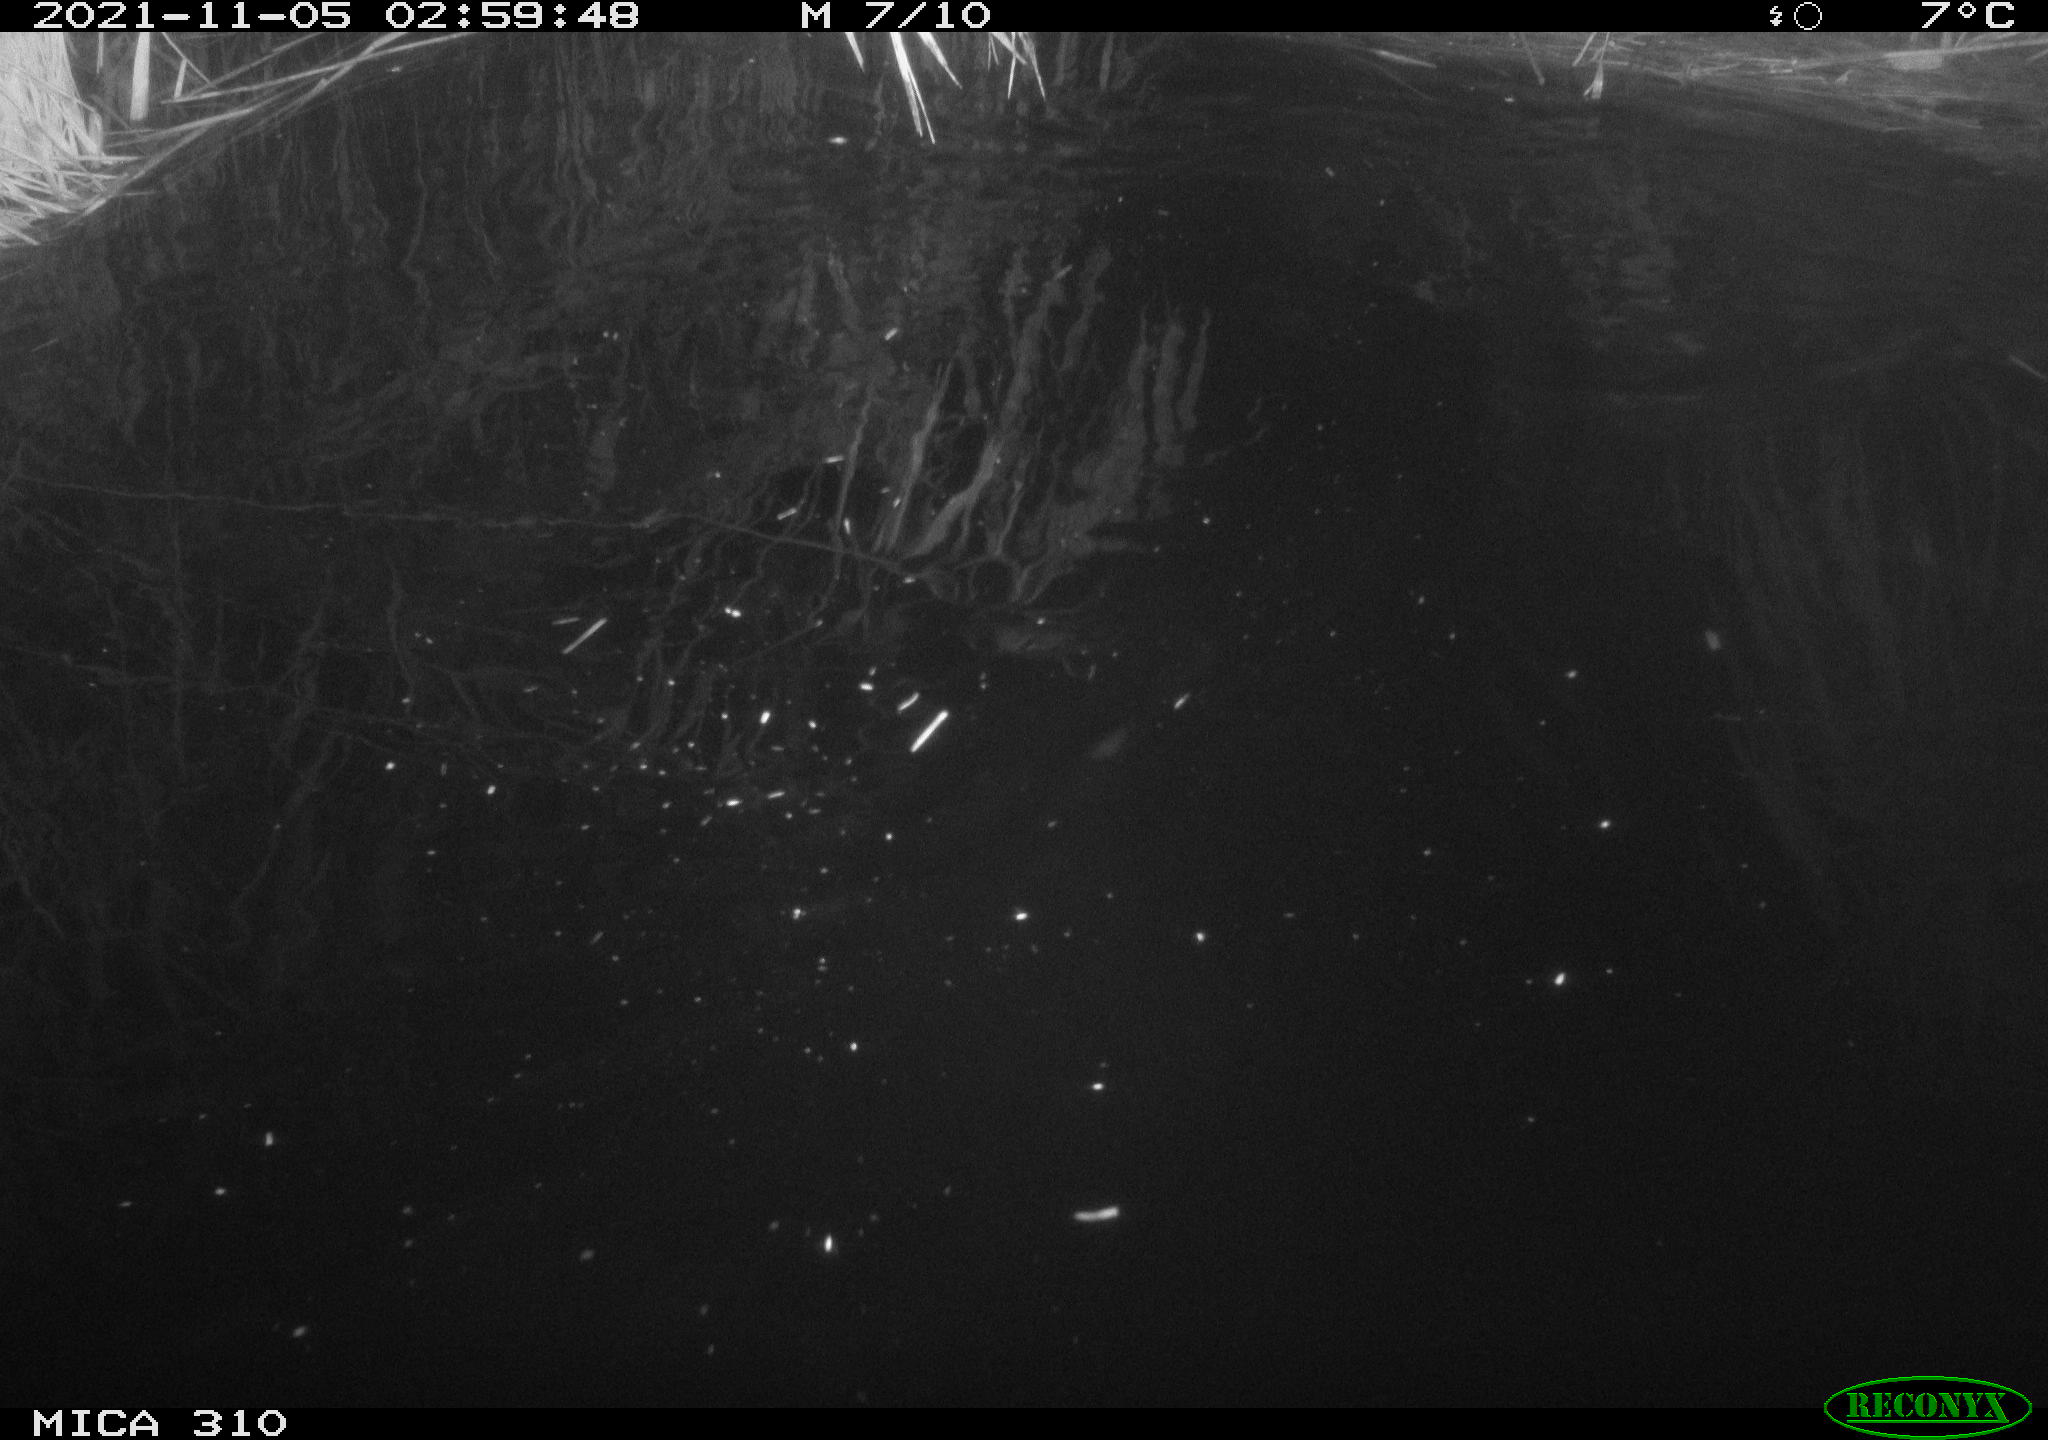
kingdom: Animalia
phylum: Chordata
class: Mammalia
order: Rodentia
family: Muridae
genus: Rattus
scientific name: Rattus norvegicus
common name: Brown rat
